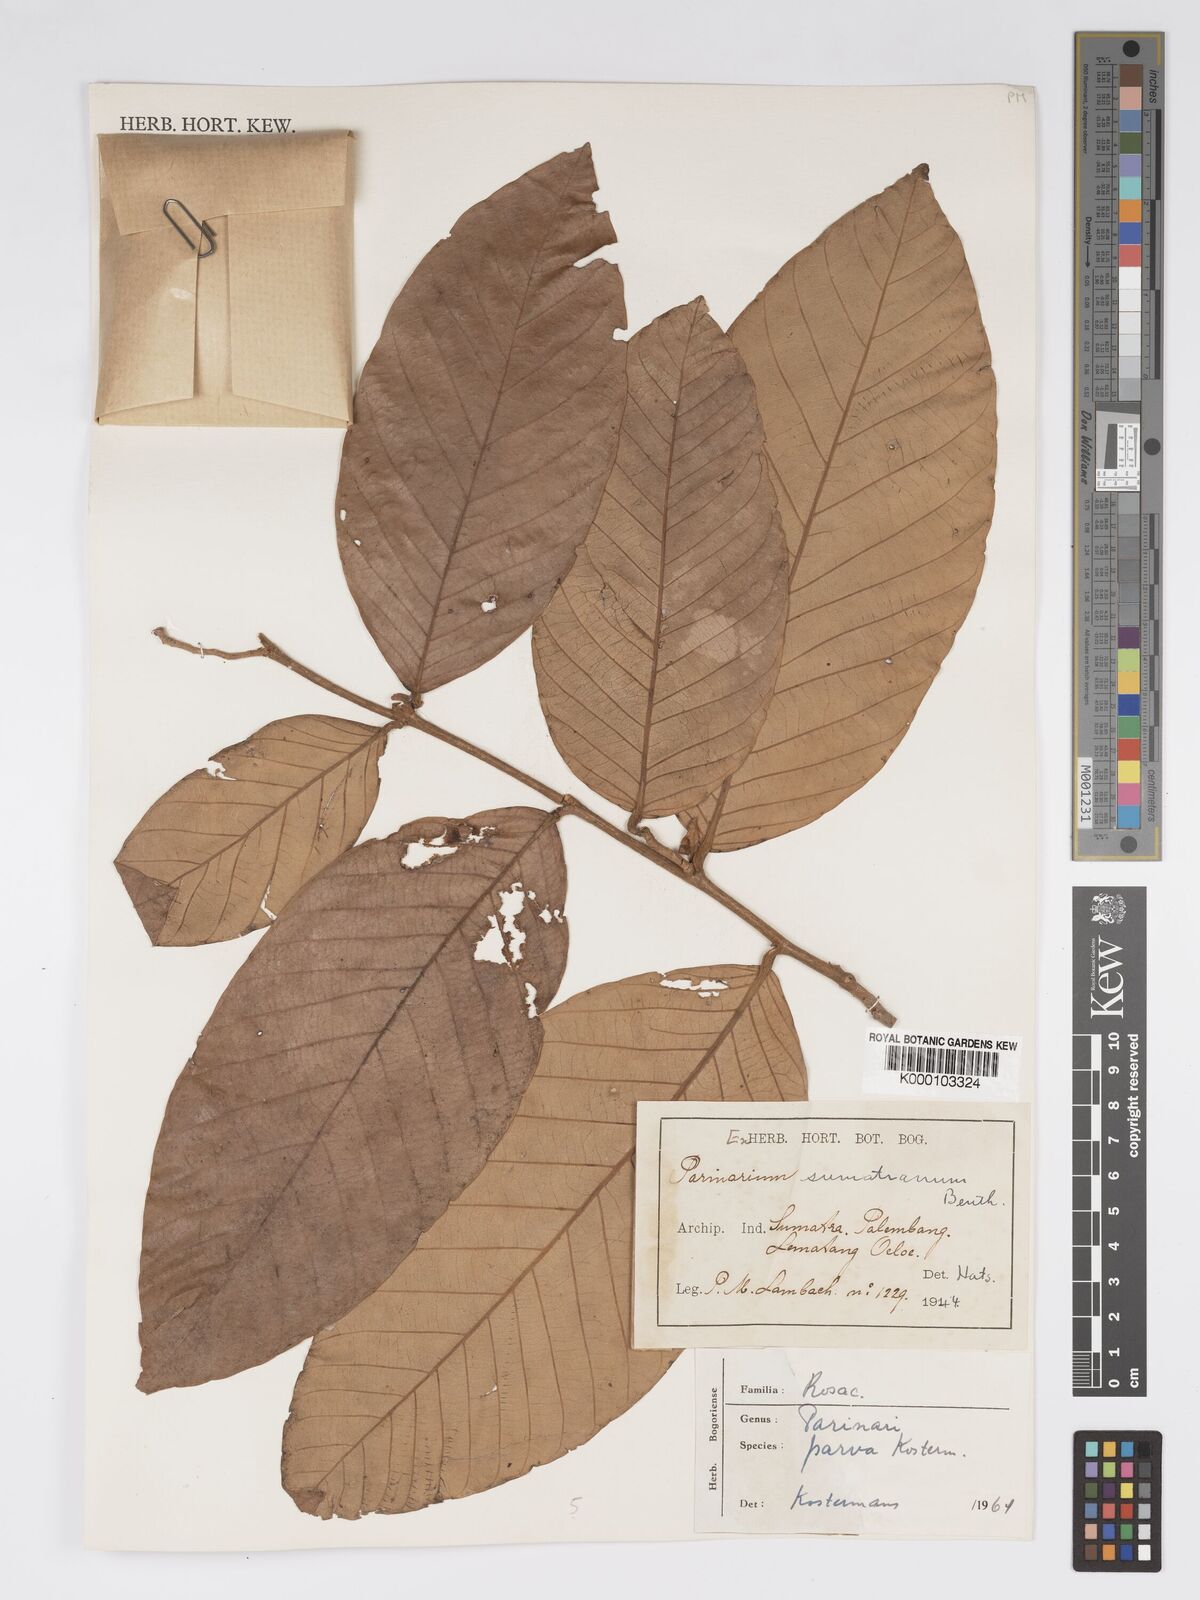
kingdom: Plantae
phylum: Tracheophyta
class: Magnoliopsida
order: Malpighiales
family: Chrysobalanaceae
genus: Parinari
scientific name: Parinari parva
